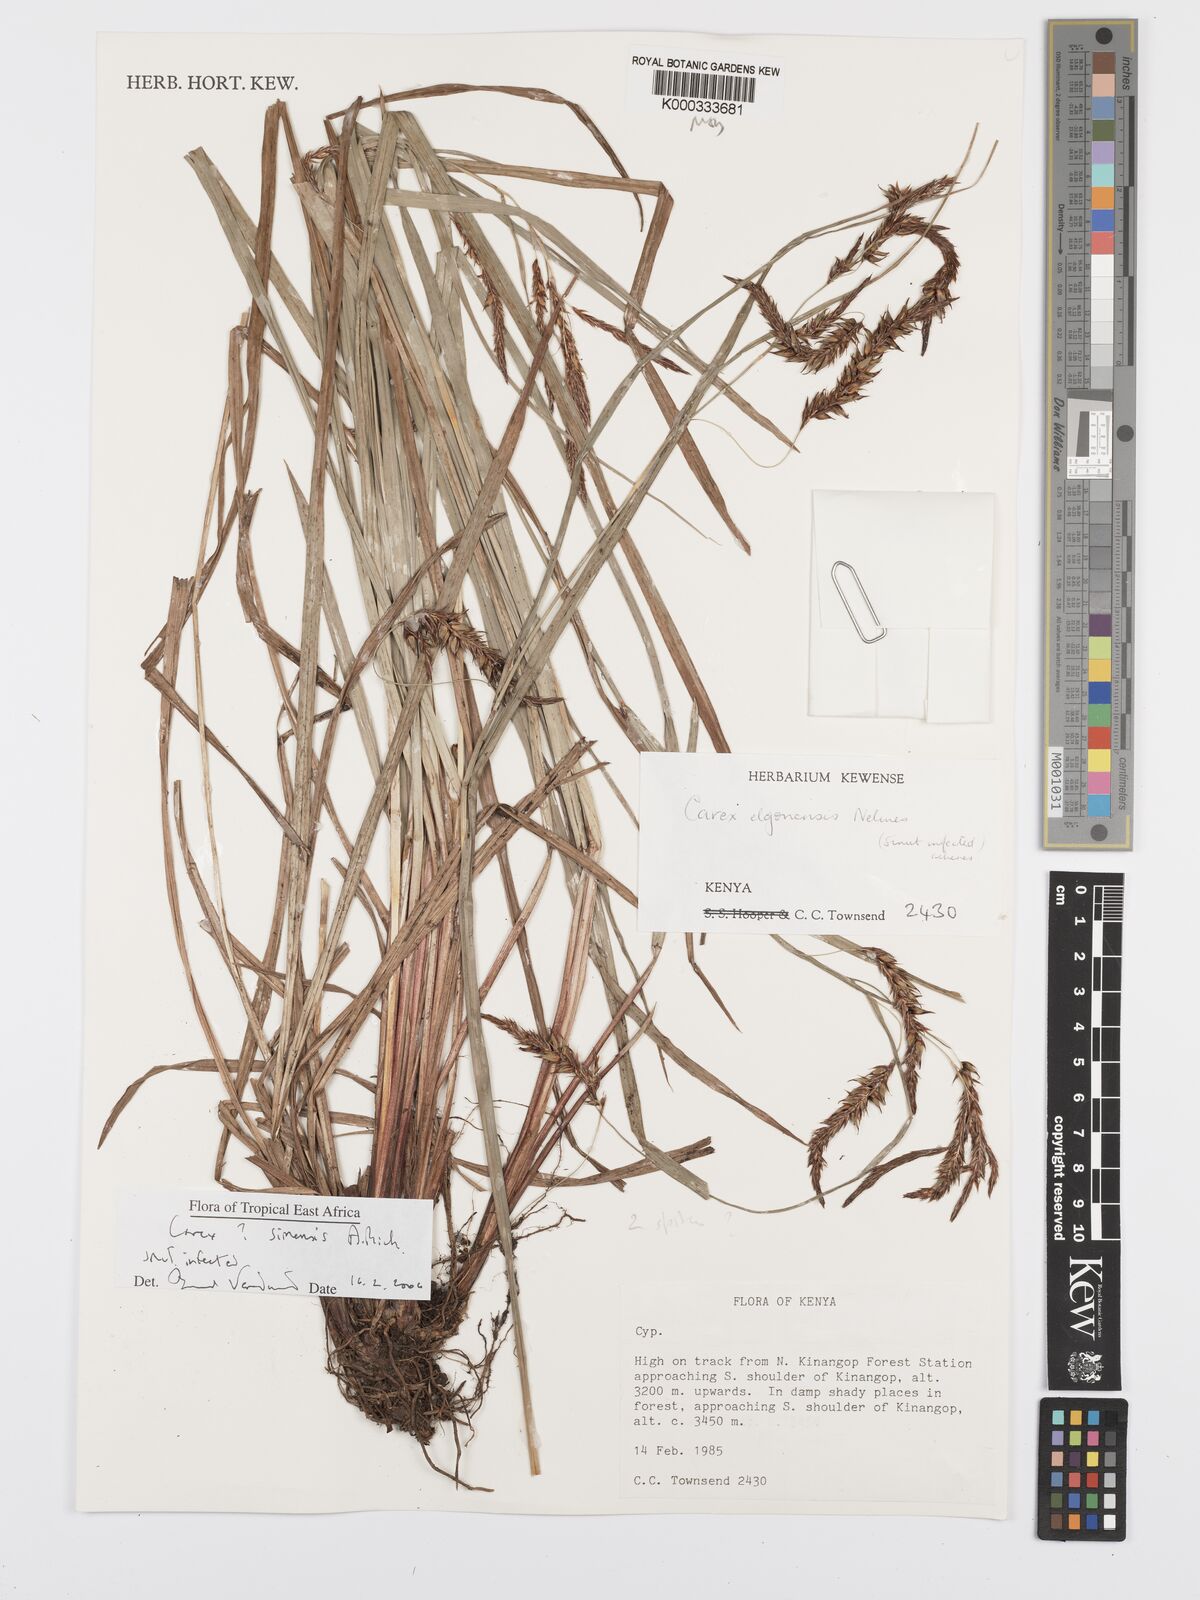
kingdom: Plantae
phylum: Tracheophyta
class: Liliopsida
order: Poales
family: Cyperaceae
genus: Carex
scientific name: Carex simensis
